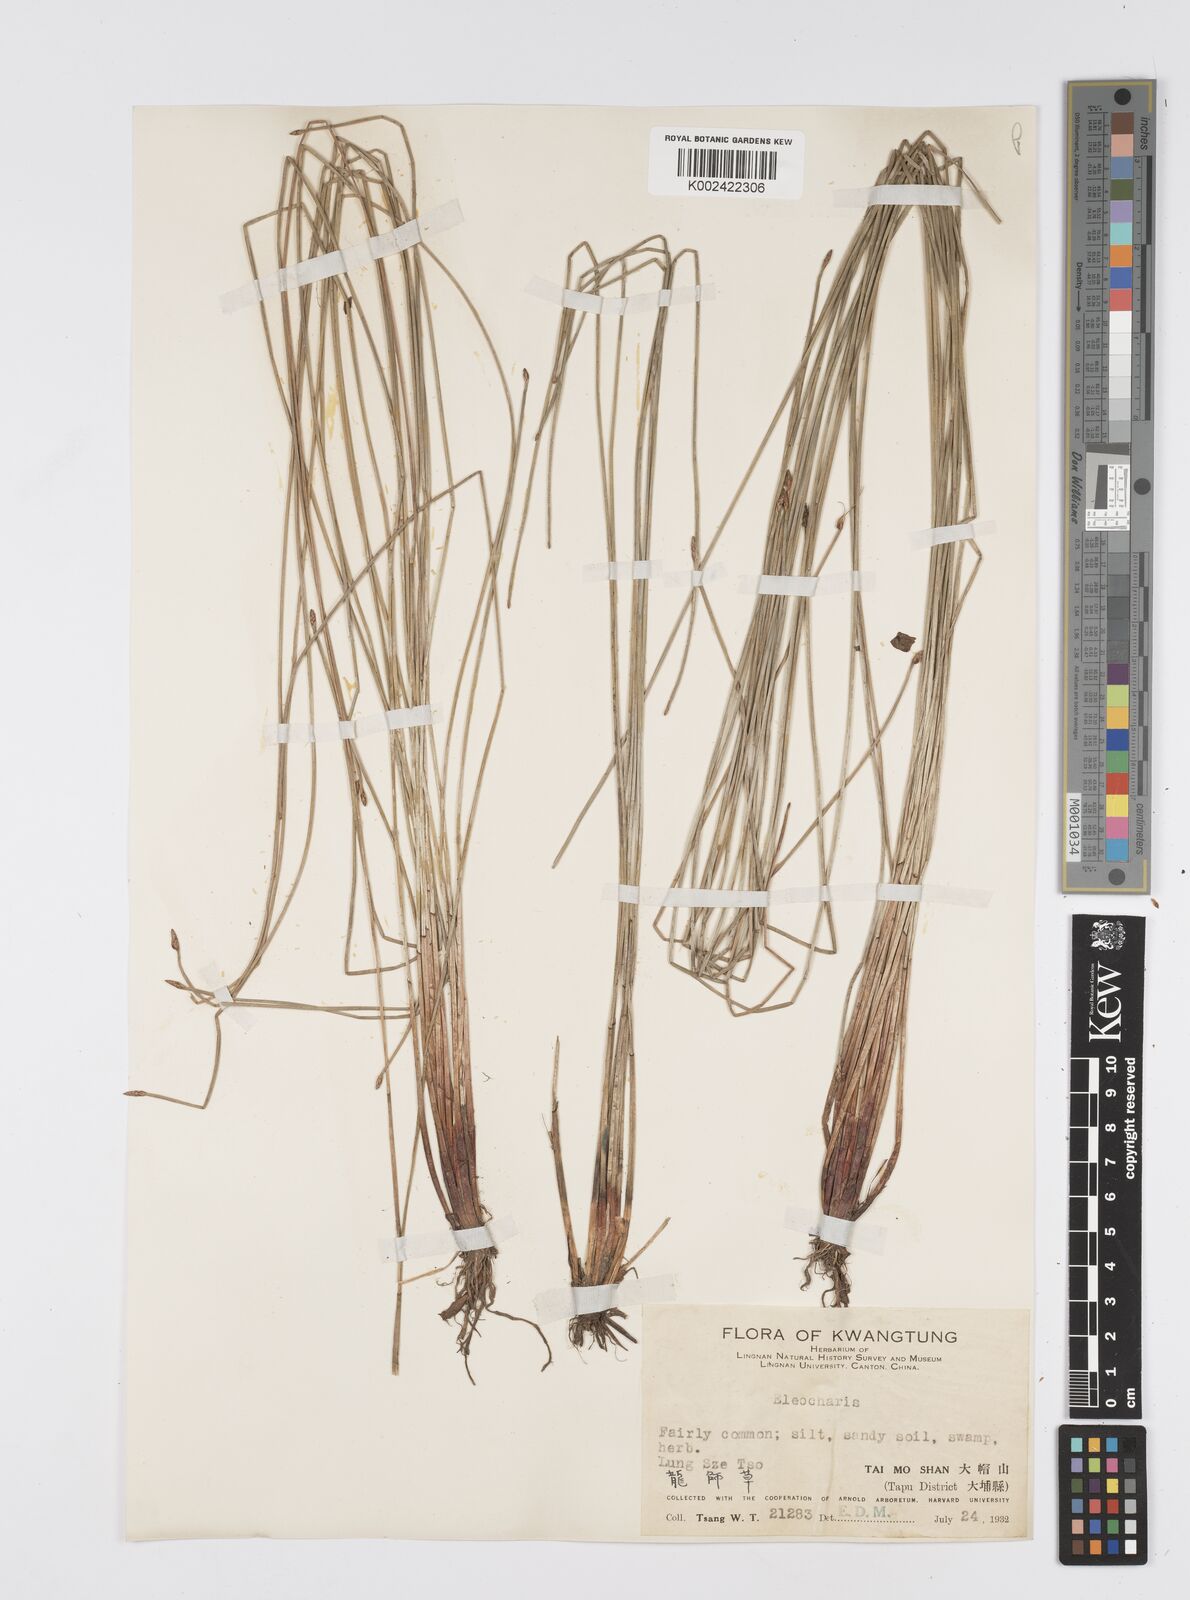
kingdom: Plantae
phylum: Tracheophyta
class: Liliopsida
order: Poales
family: Cyperaceae
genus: Eleocharis
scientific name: Eleocharis
